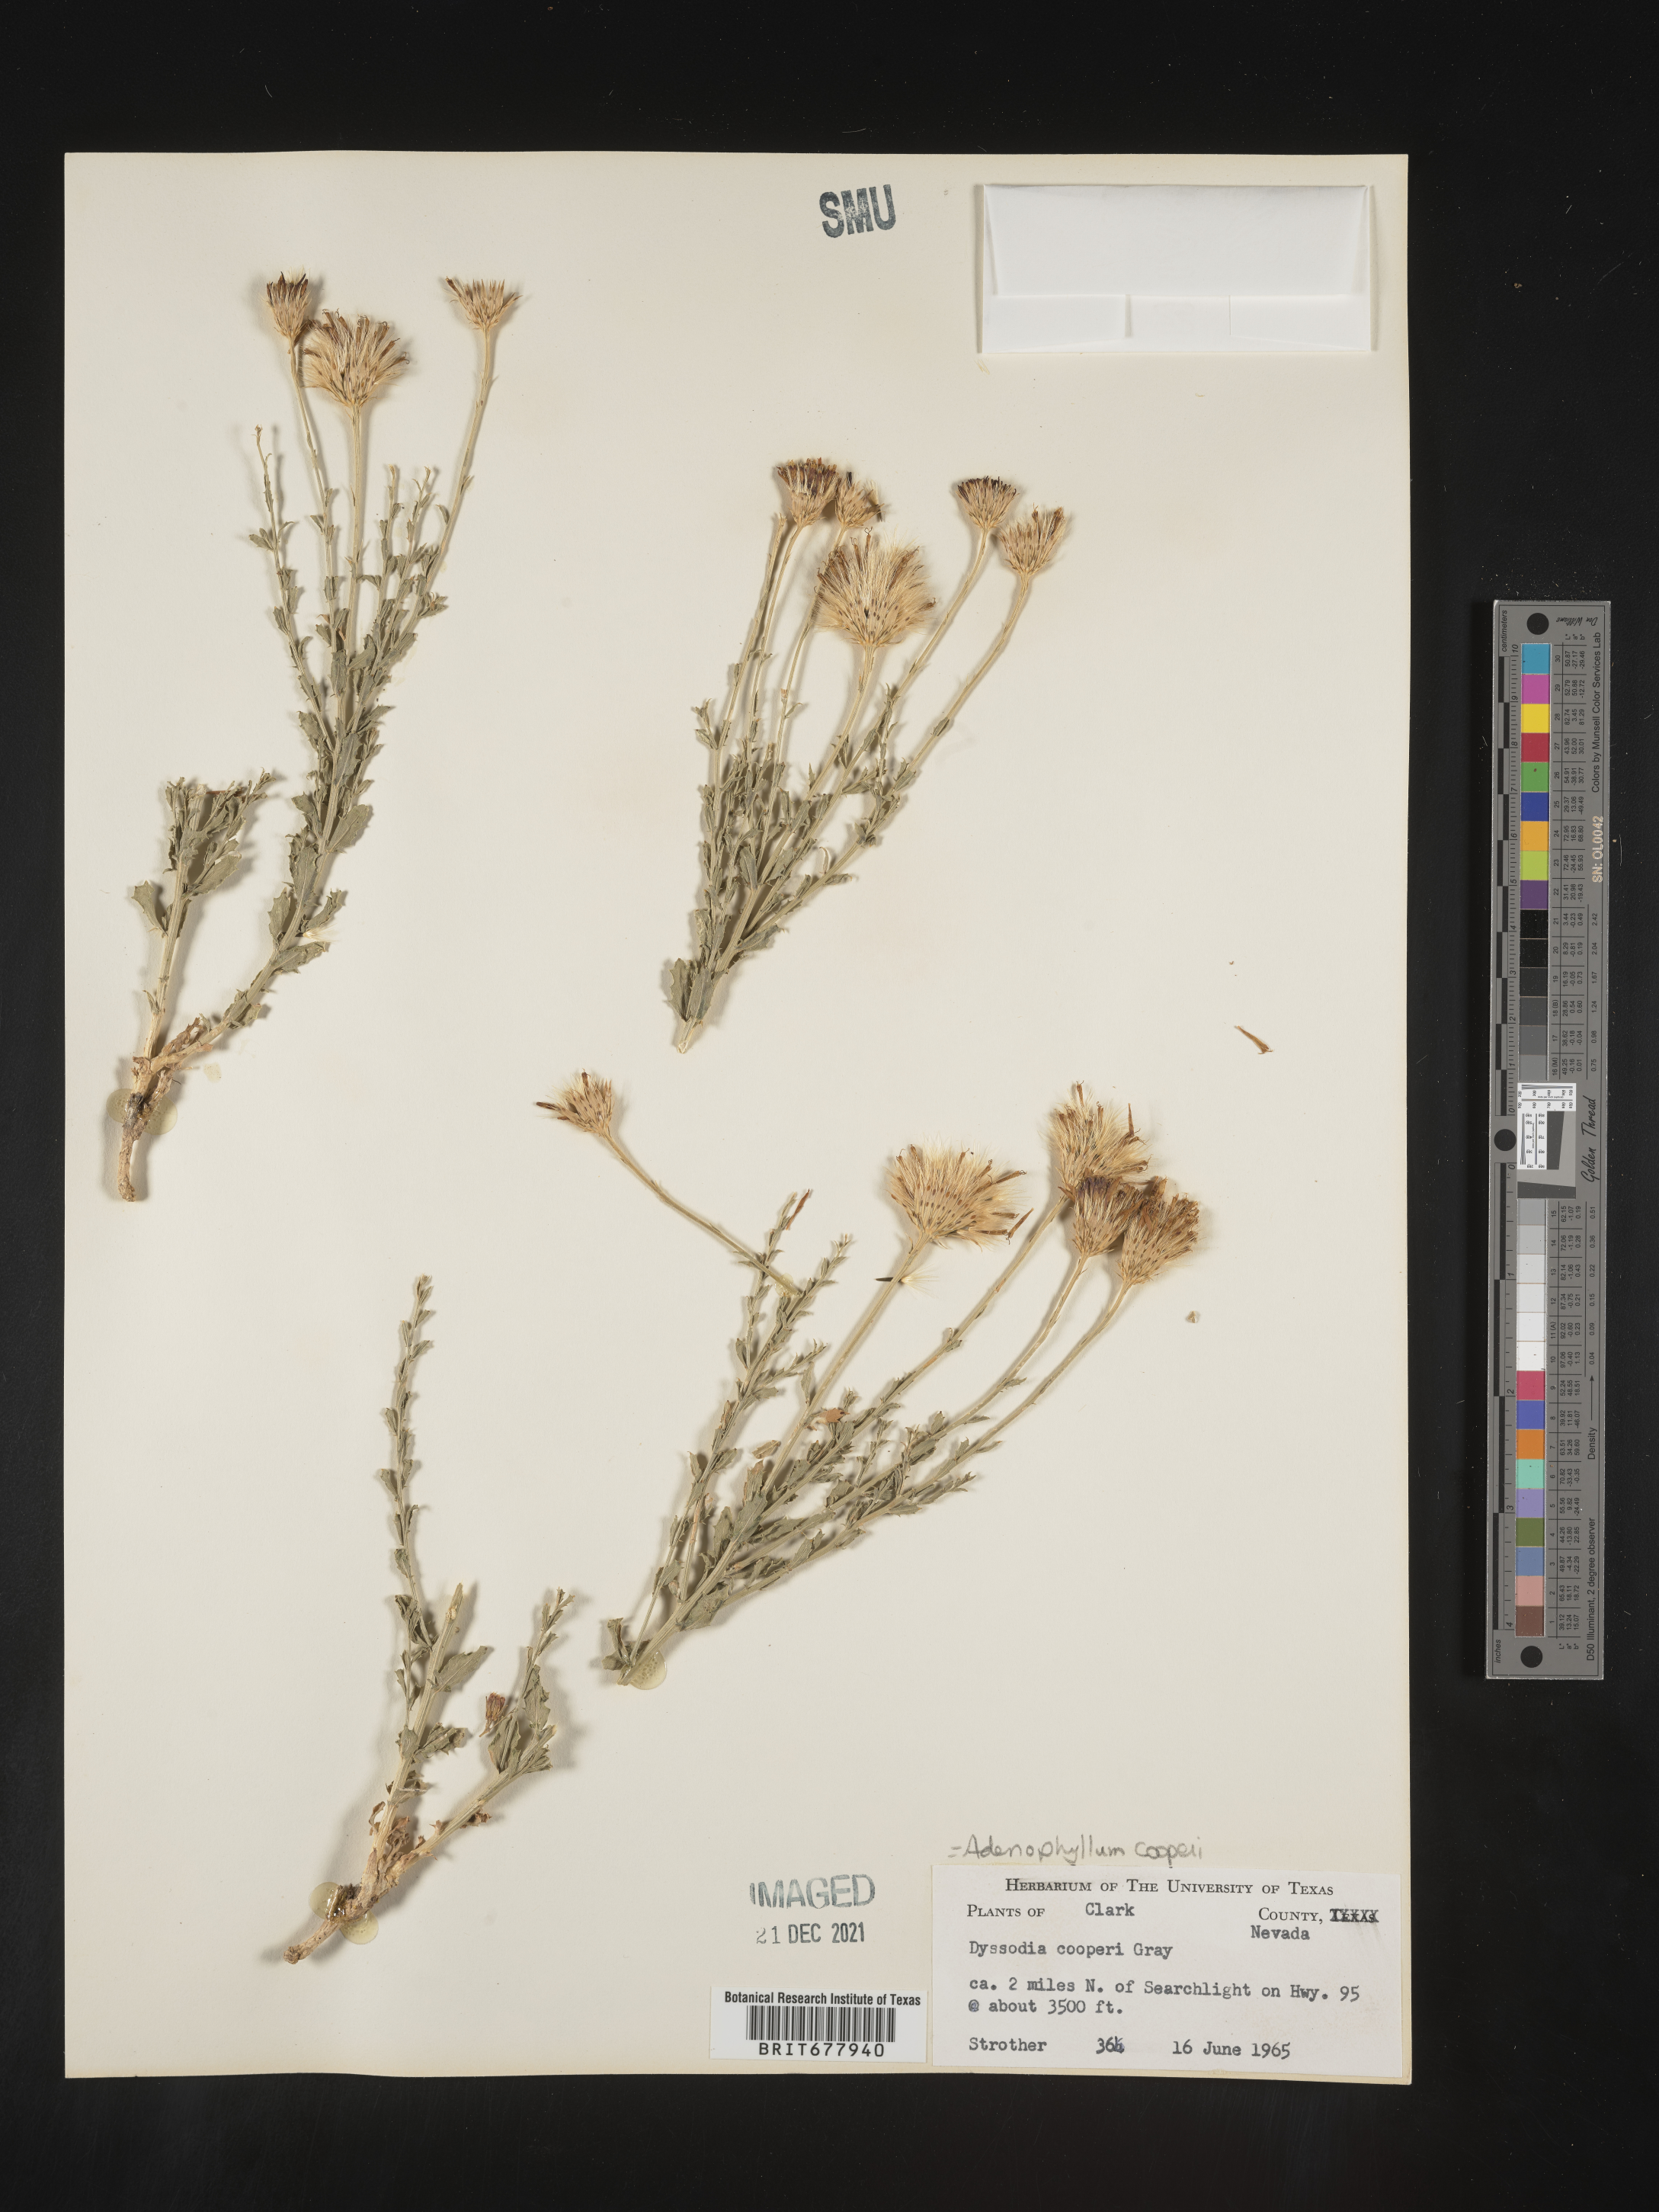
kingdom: Plantae
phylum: Tracheophyta
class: Magnoliopsida
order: Asterales
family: Asteraceae
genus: Adenophyllum
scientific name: Adenophyllum
